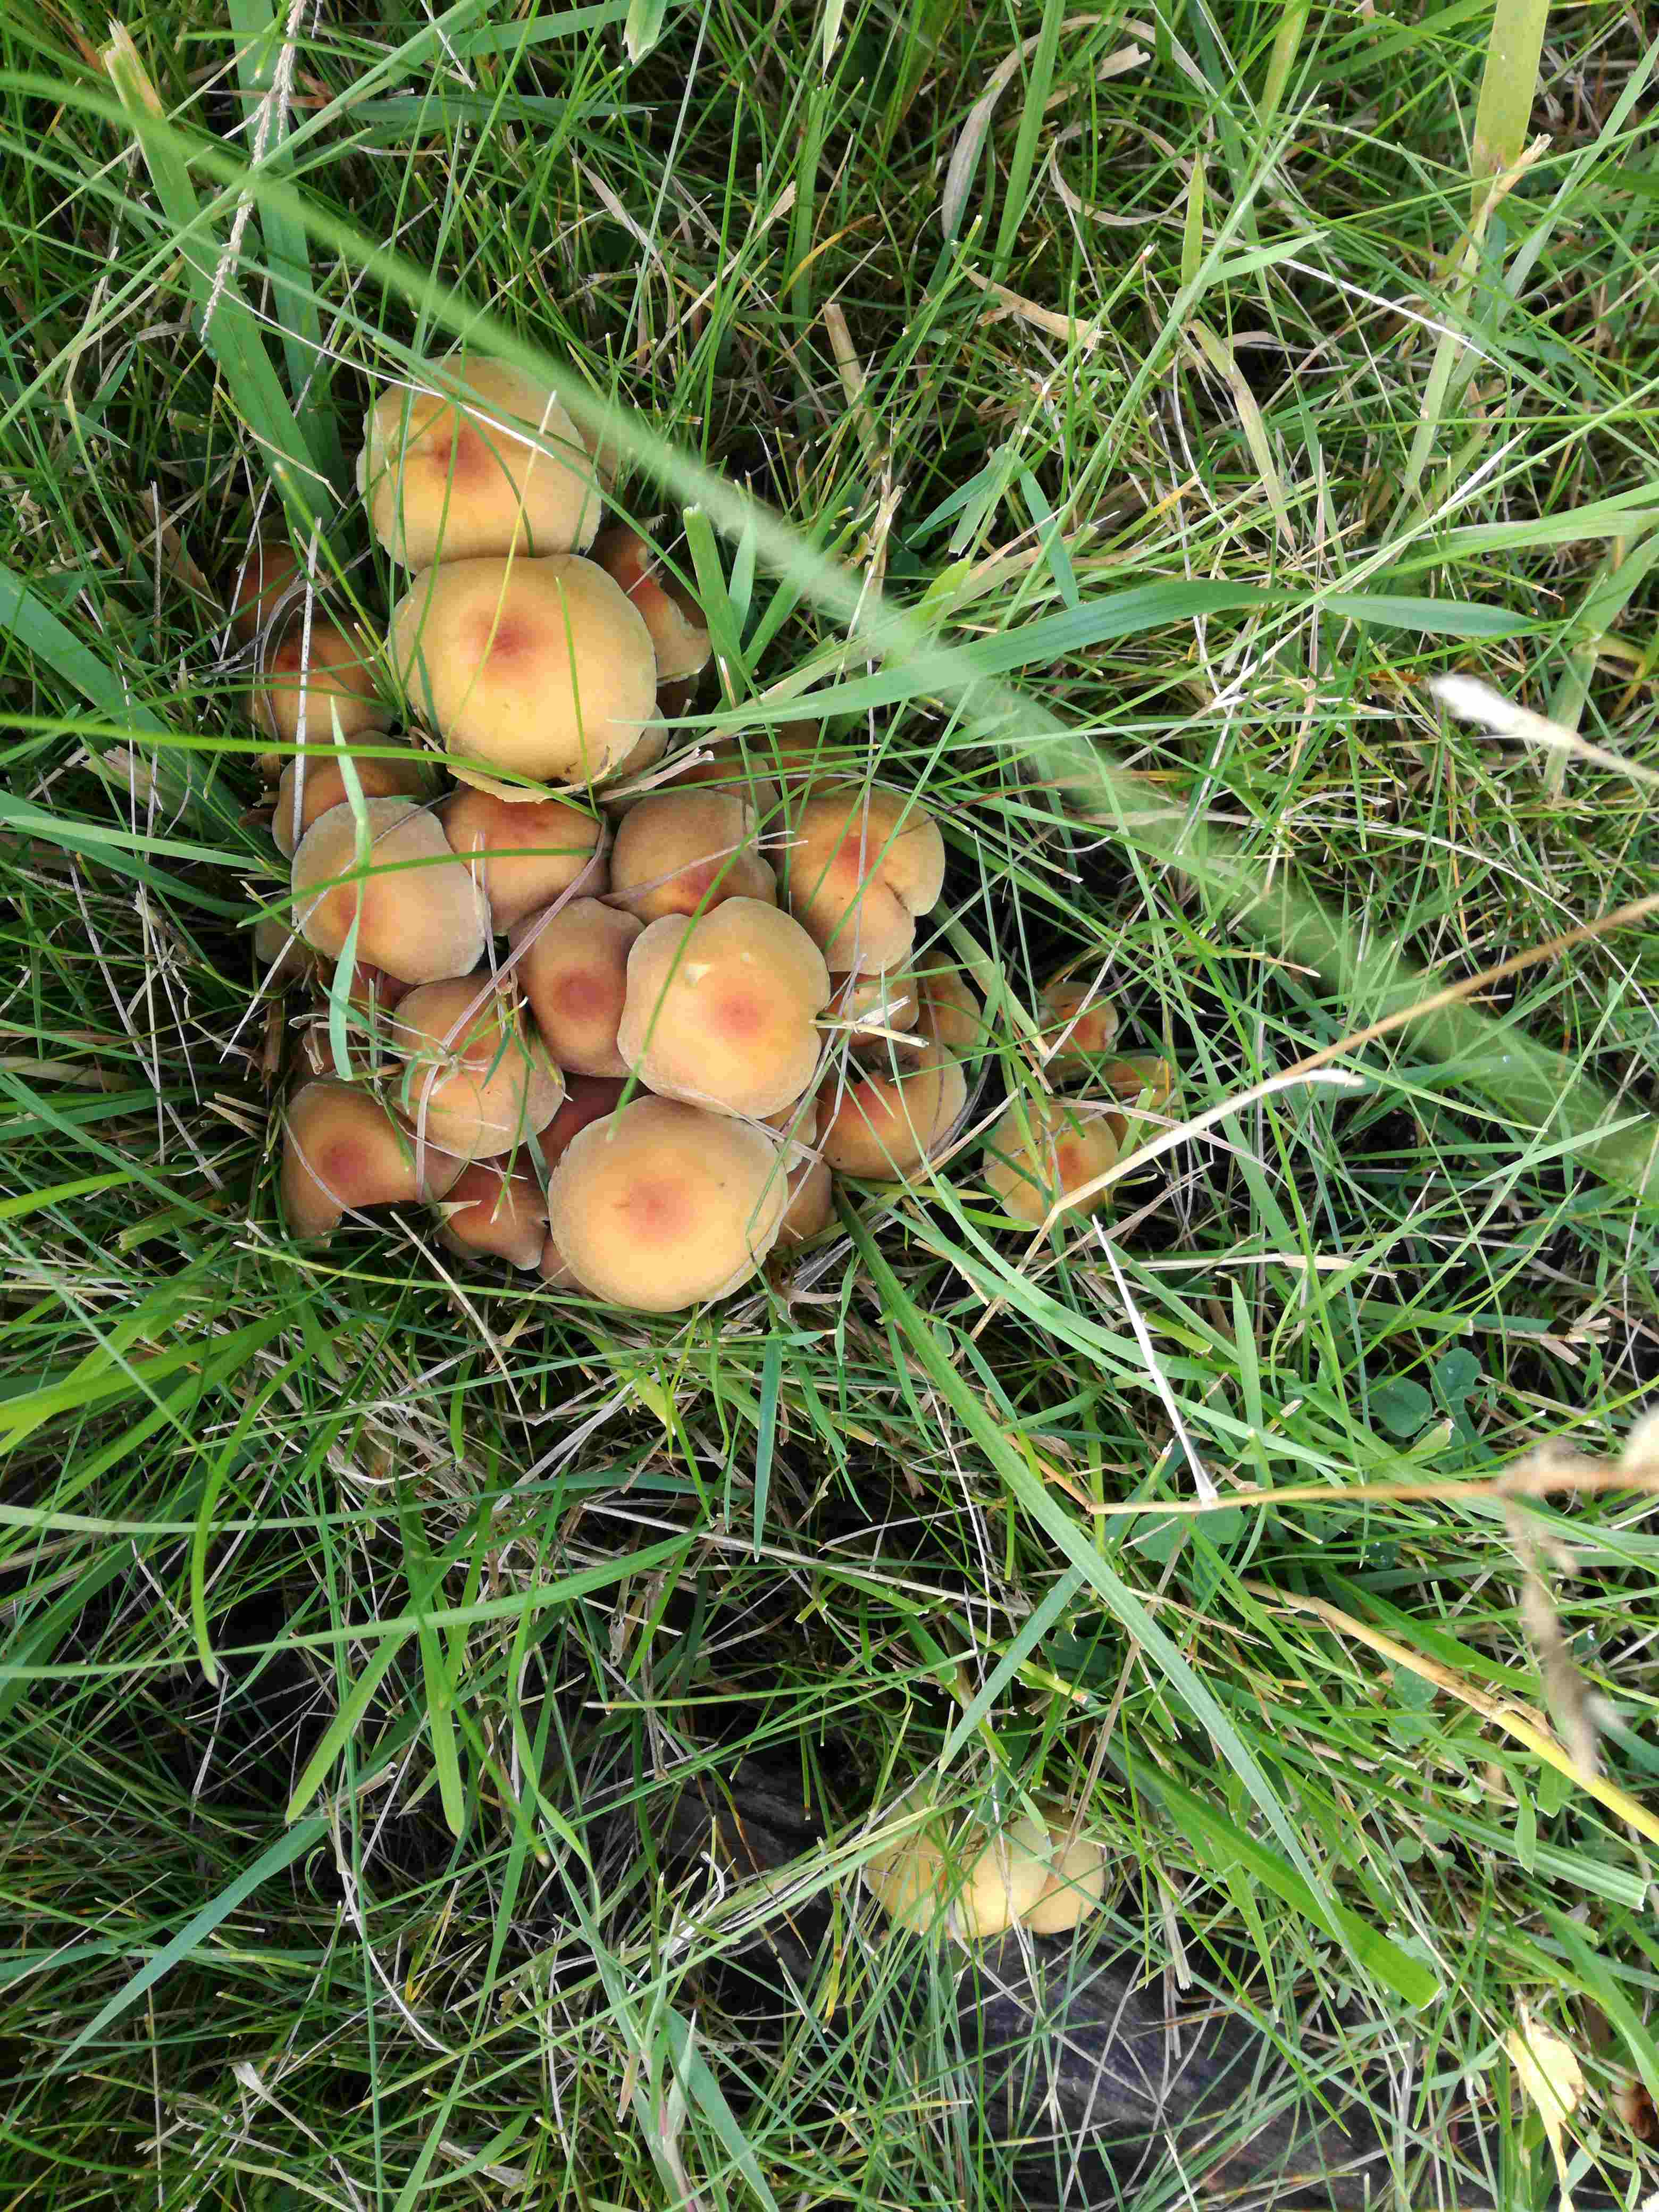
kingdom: Fungi
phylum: Basidiomycota
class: Agaricomycetes
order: Agaricales
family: Strophariaceae
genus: Hypholoma
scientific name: Hypholoma fasciculare
